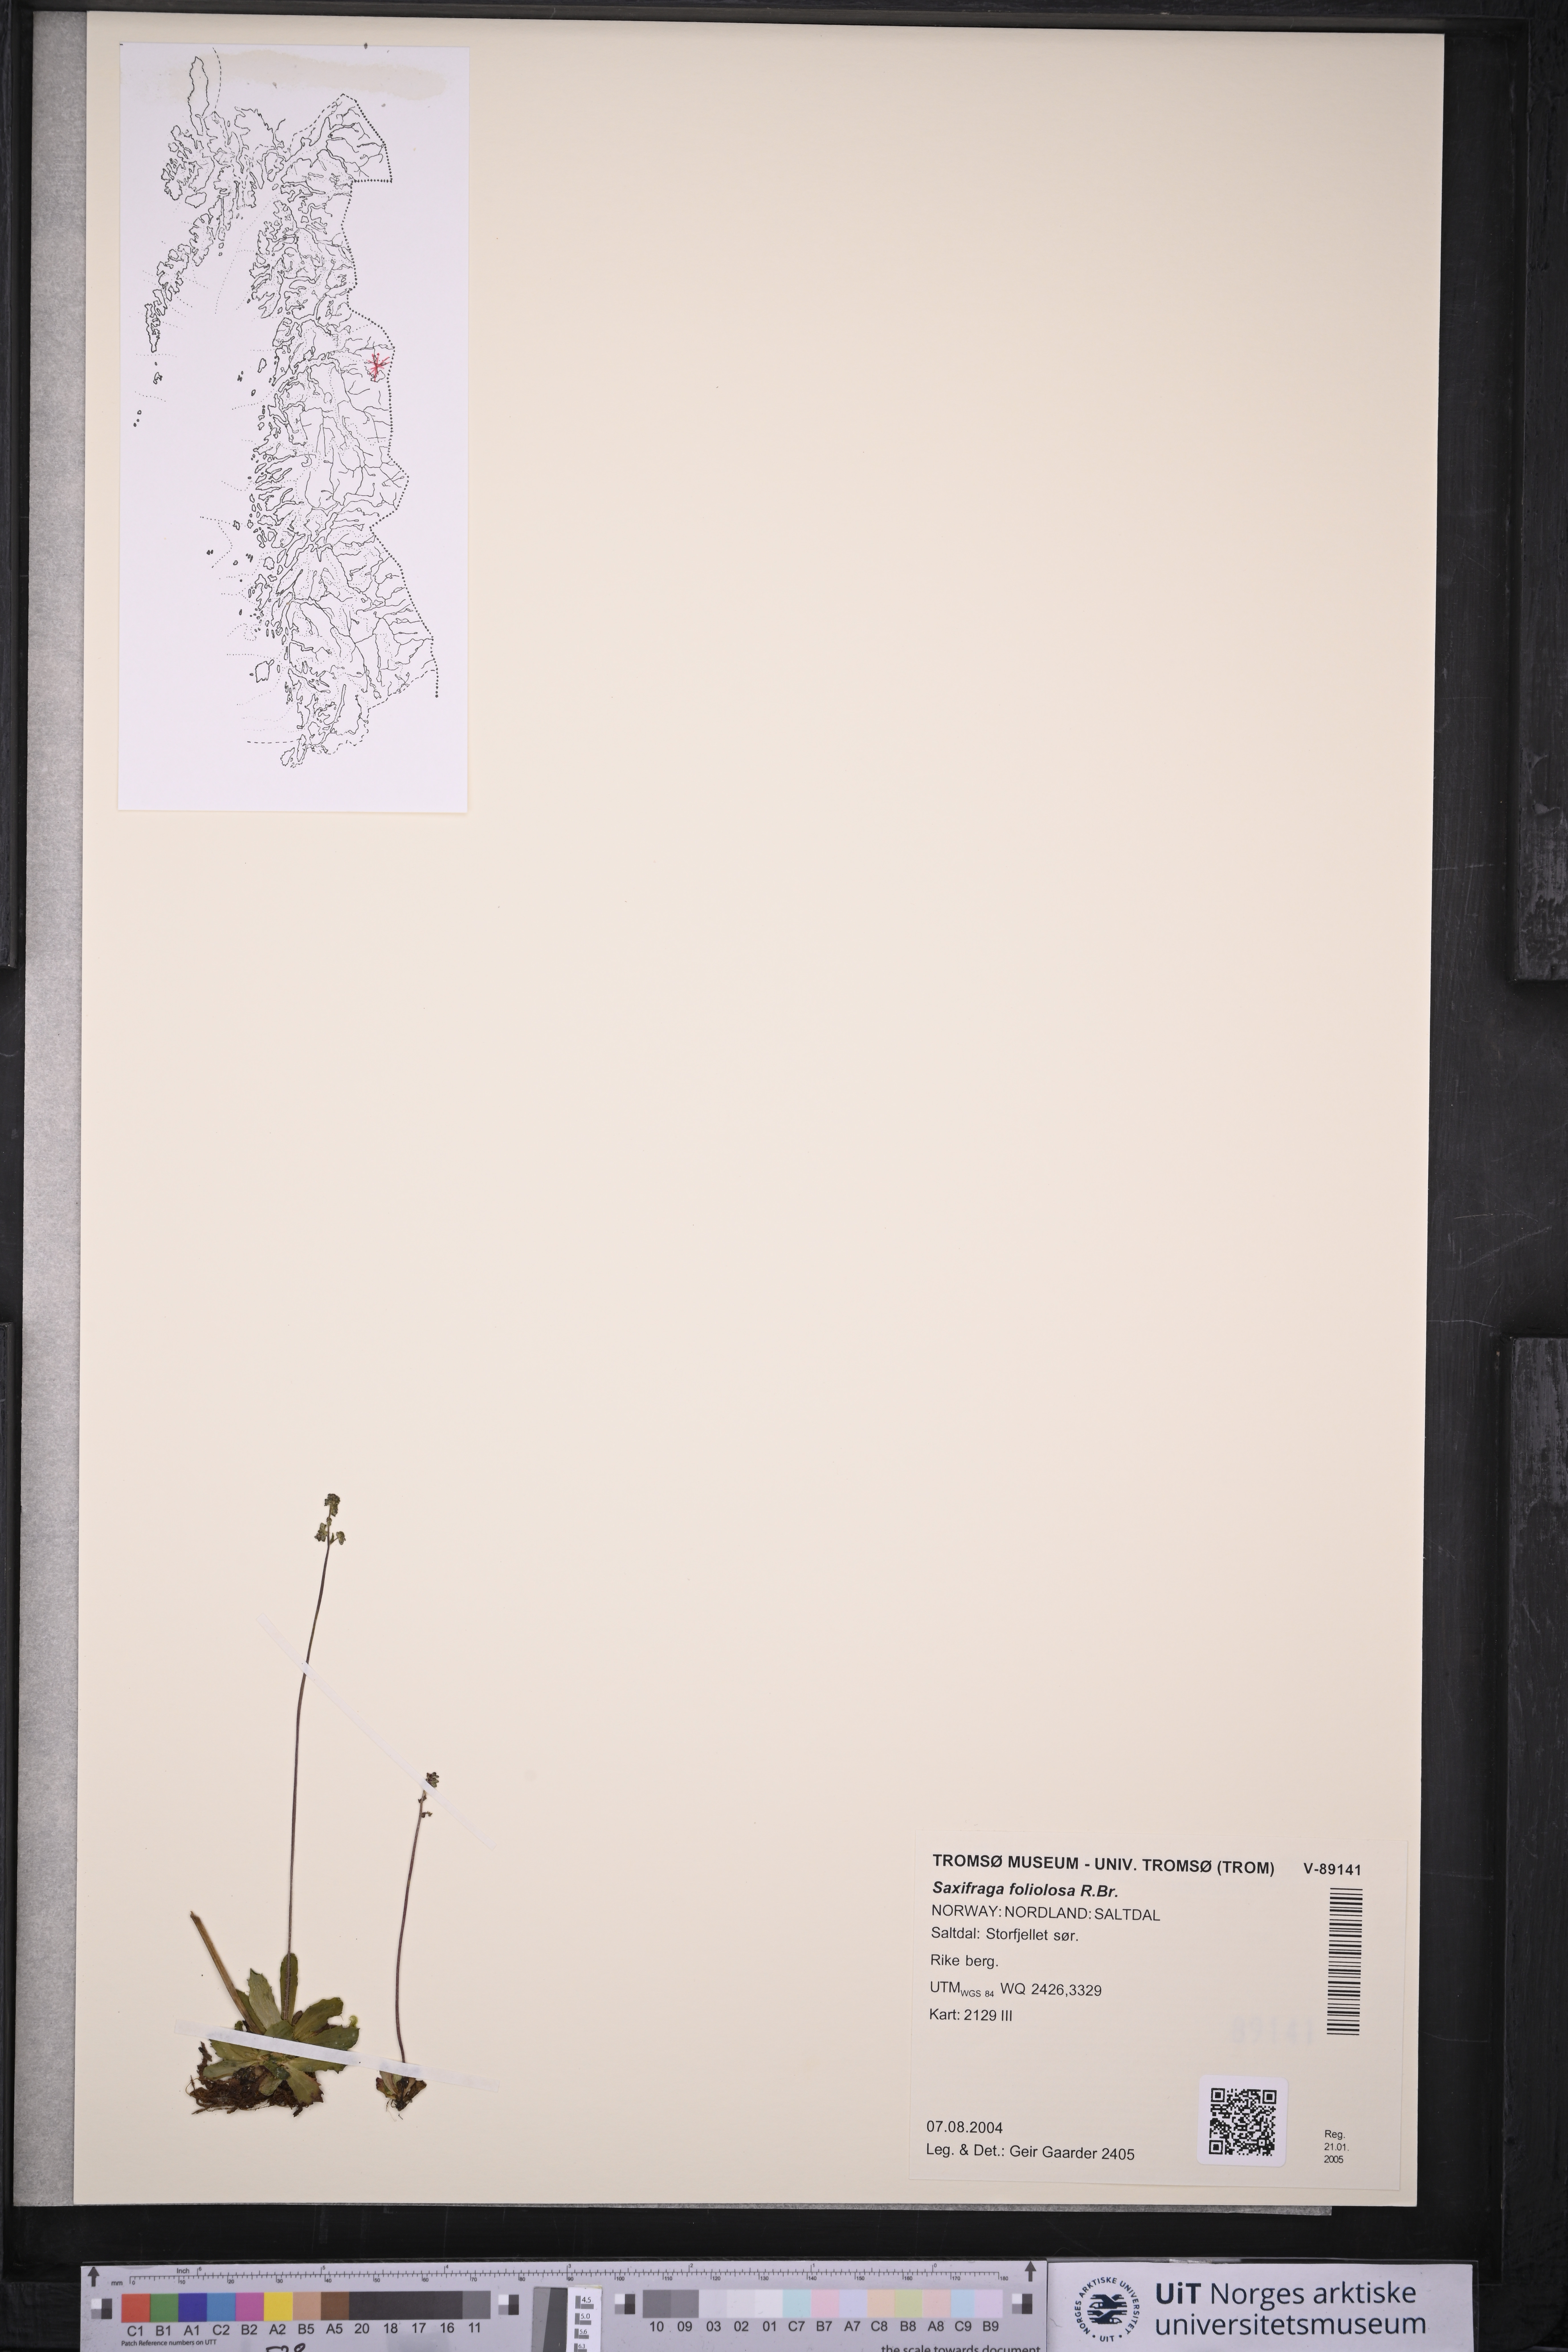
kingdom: Plantae
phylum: Tracheophyta
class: Magnoliopsida
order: Saxifragales
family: Saxifragaceae
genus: Micranthes
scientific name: Micranthes foliolosa
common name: Leafystem saxifrage
